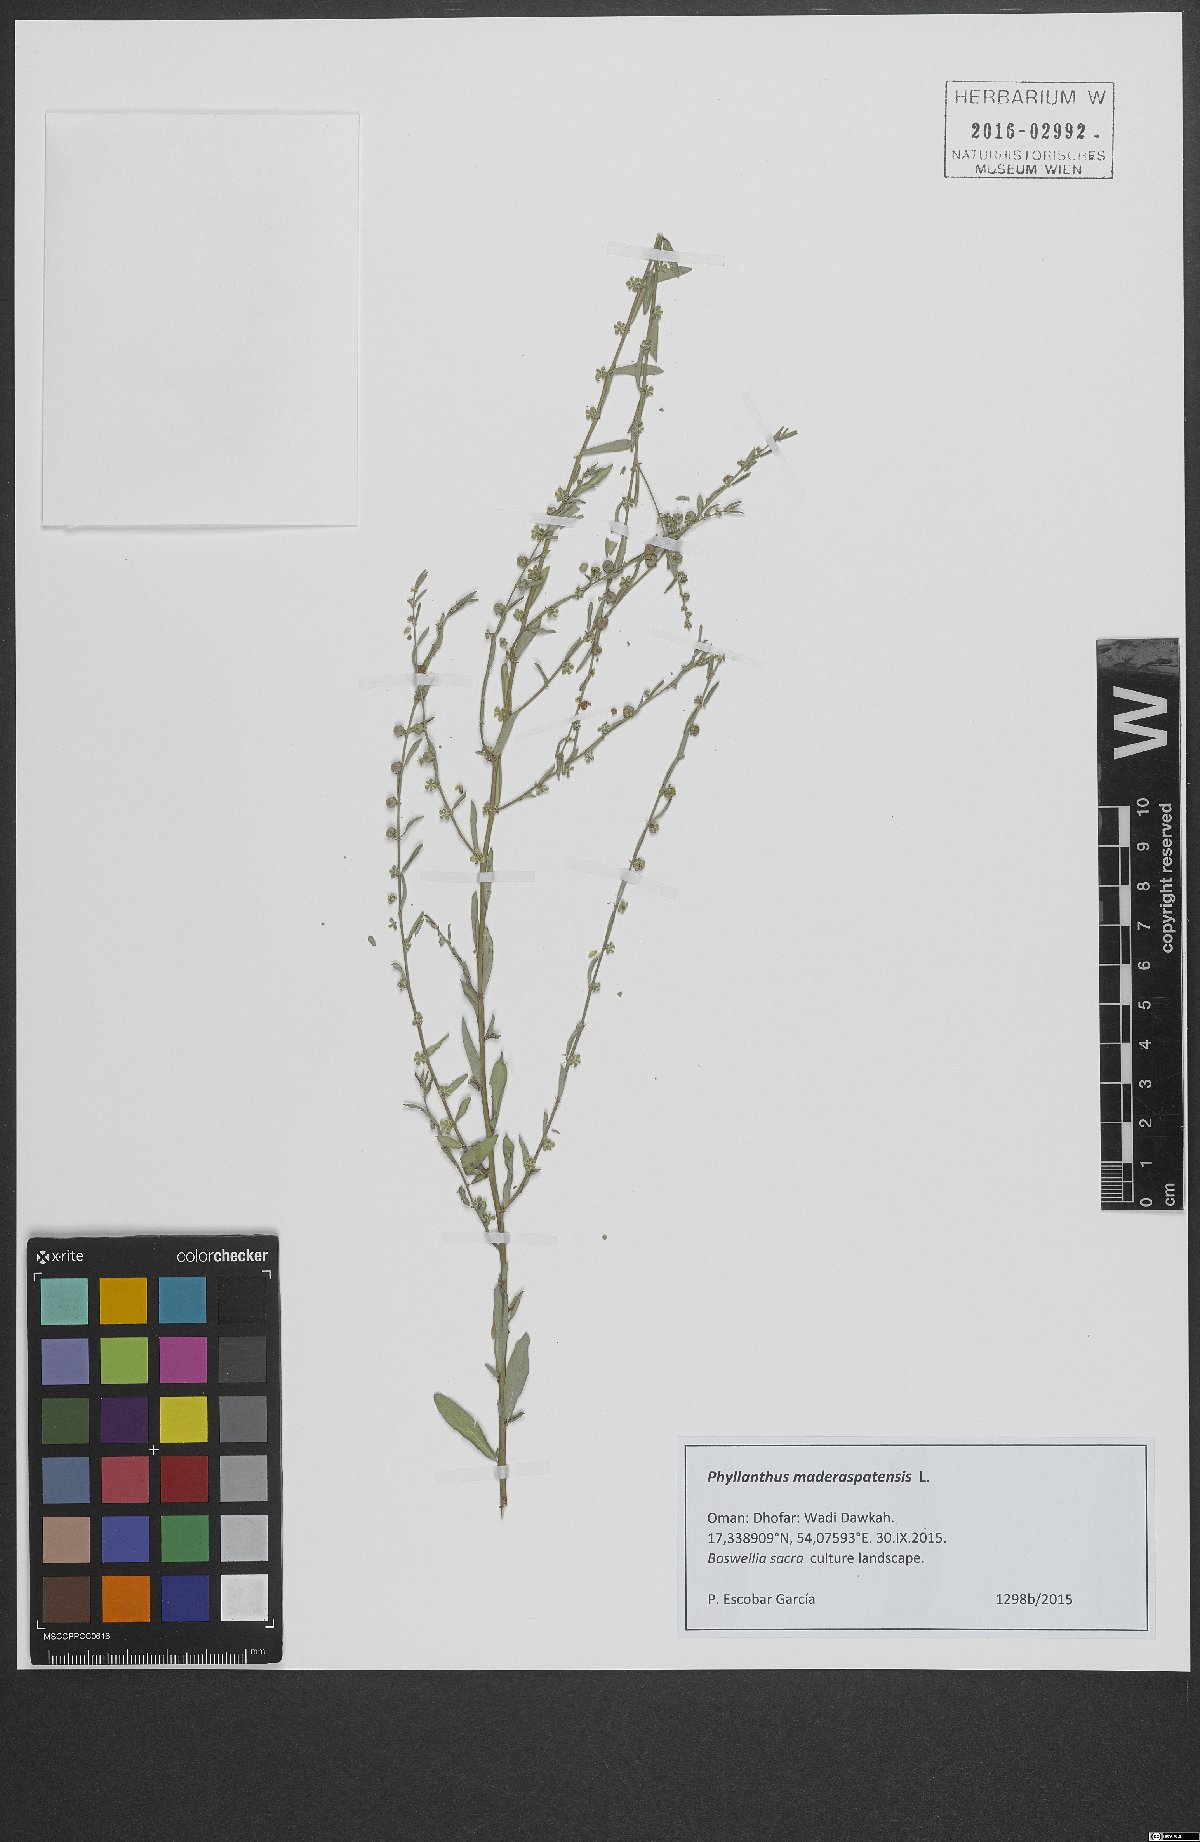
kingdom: Plantae
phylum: Tracheophyta
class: Magnoliopsida
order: Malpighiales
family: Phyllanthaceae
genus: Phyllanthus
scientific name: Phyllanthus maderaspatensis
